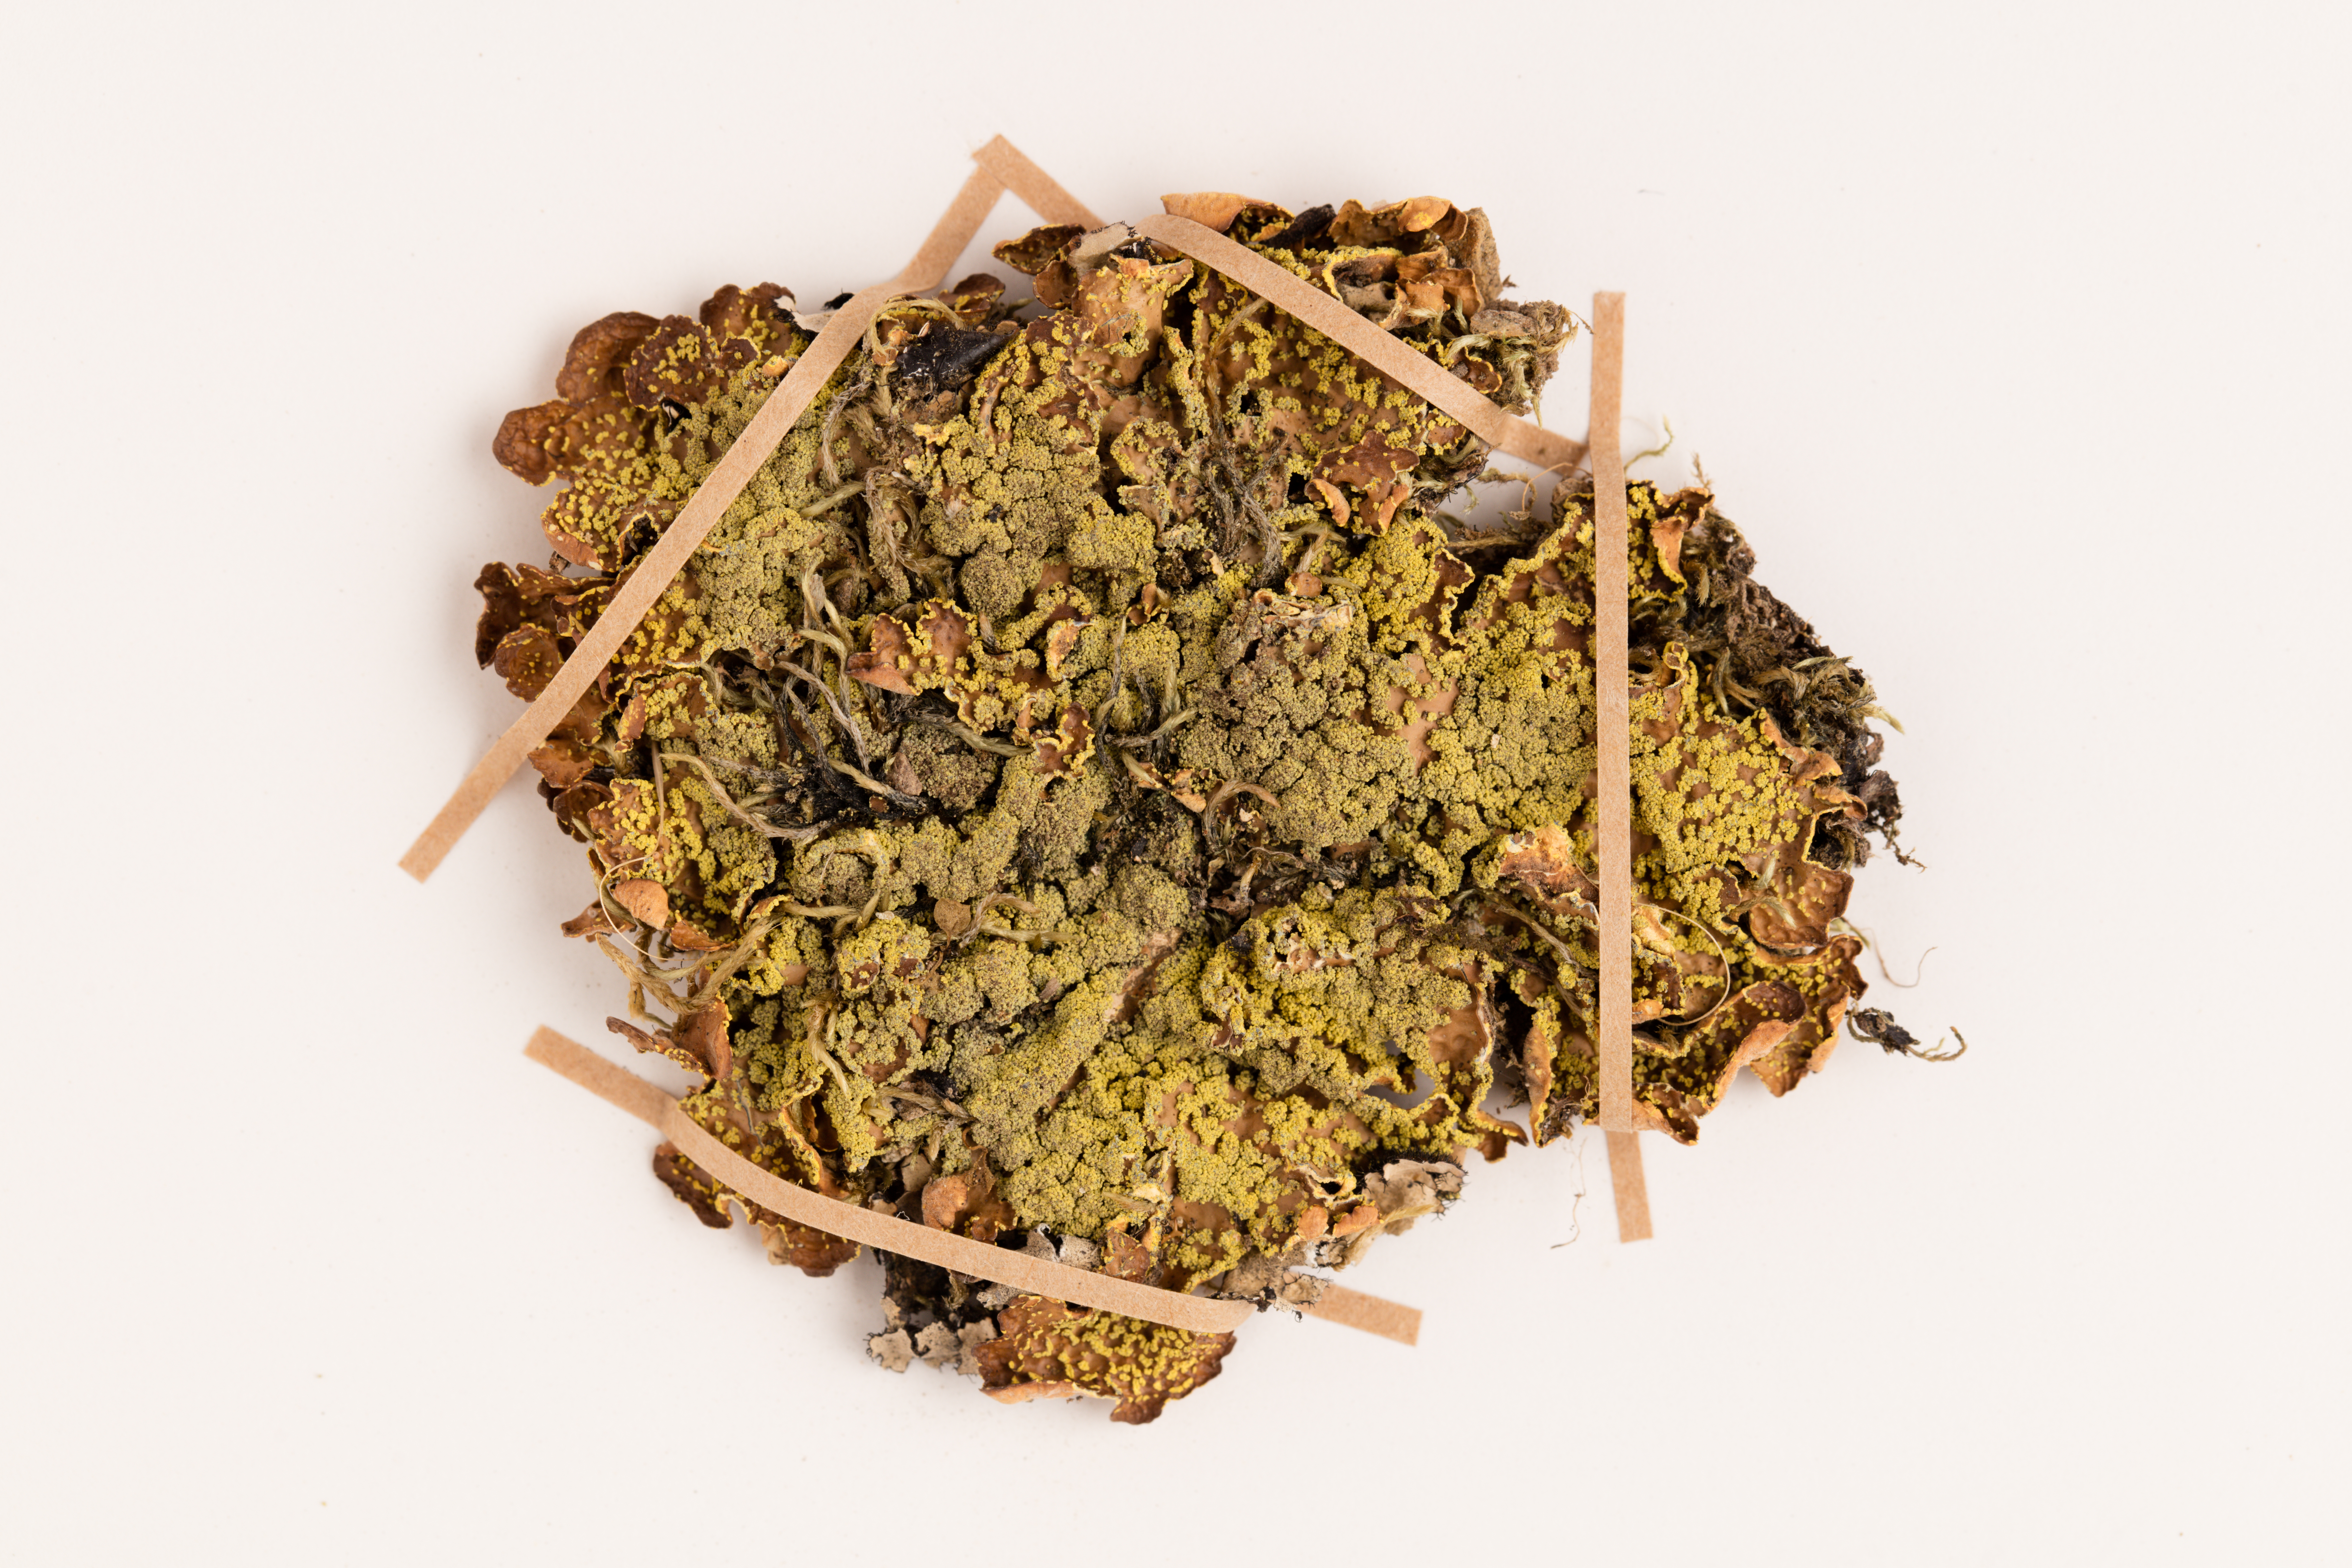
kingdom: Fungi
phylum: Ascomycota
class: Lecanoromycetes
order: Peltigerales
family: Lobariaceae
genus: Pseudocyphellaria
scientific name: Pseudocyphellaria crocata
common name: Golden specklebelly
